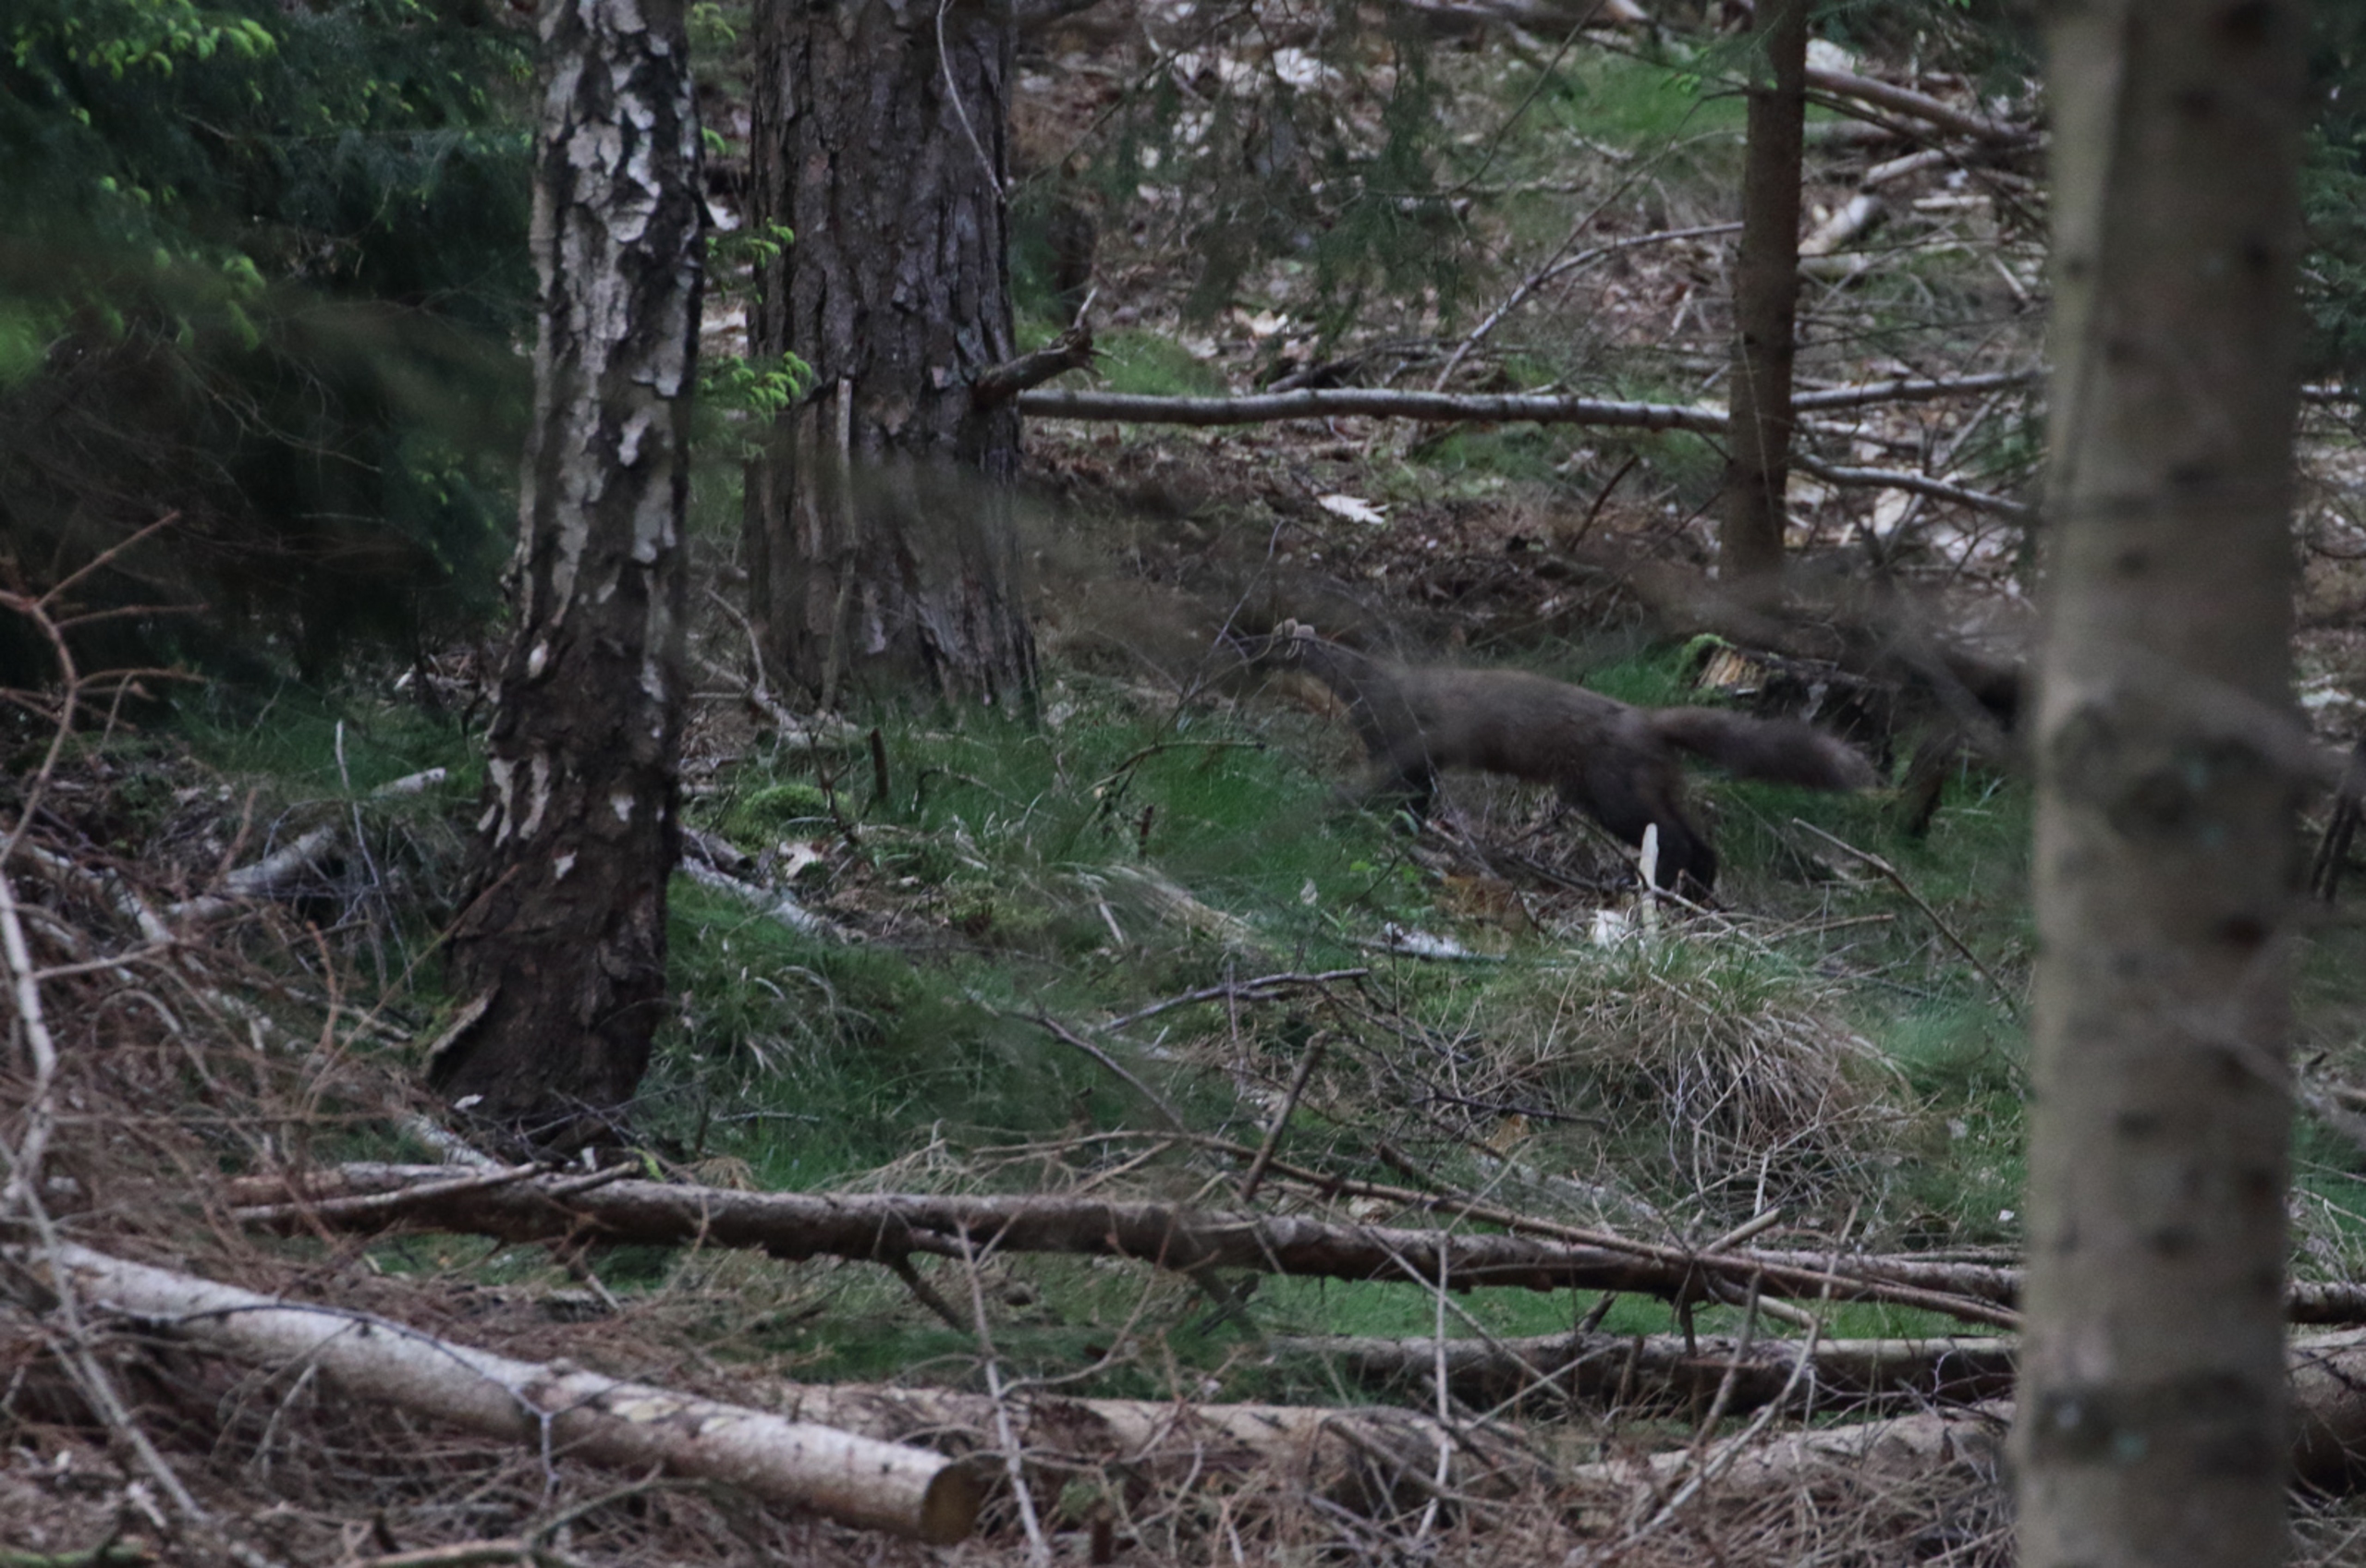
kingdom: Animalia
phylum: Chordata
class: Mammalia
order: Carnivora
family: Mustelidae
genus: Martes
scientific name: Martes martes
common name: Skovmår
